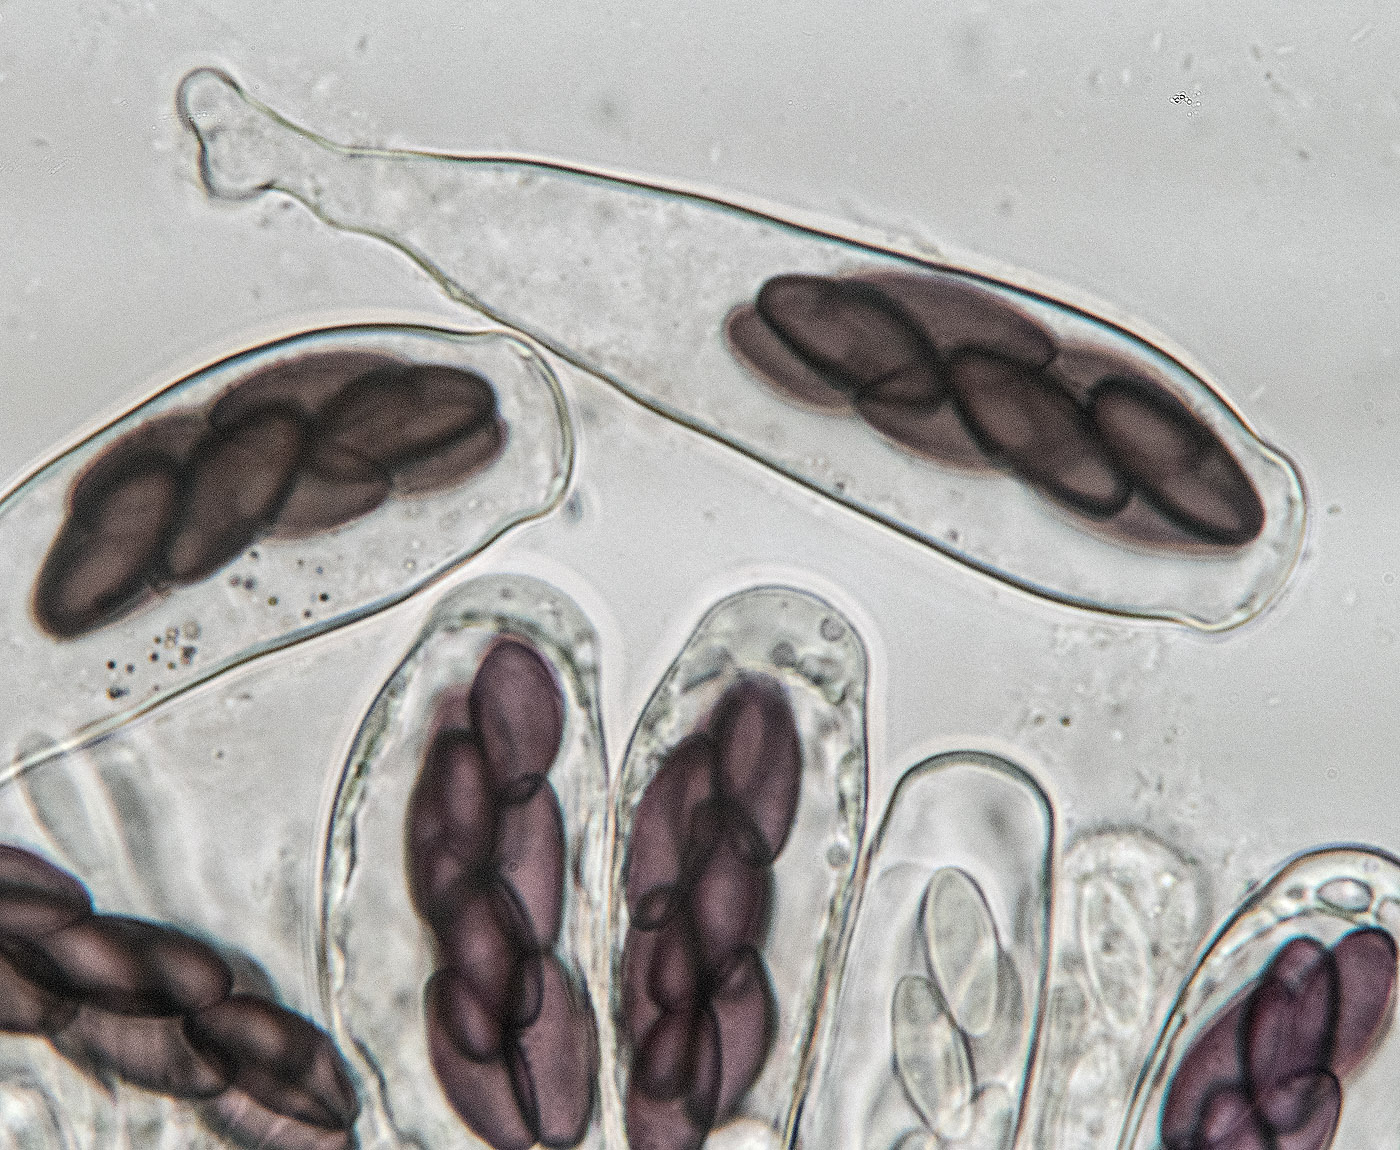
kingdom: Fungi
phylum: Ascomycota
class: Pezizomycetes
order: Pezizales
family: Ascobolaceae
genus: Saccobolus
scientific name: Saccobolus versicolor
